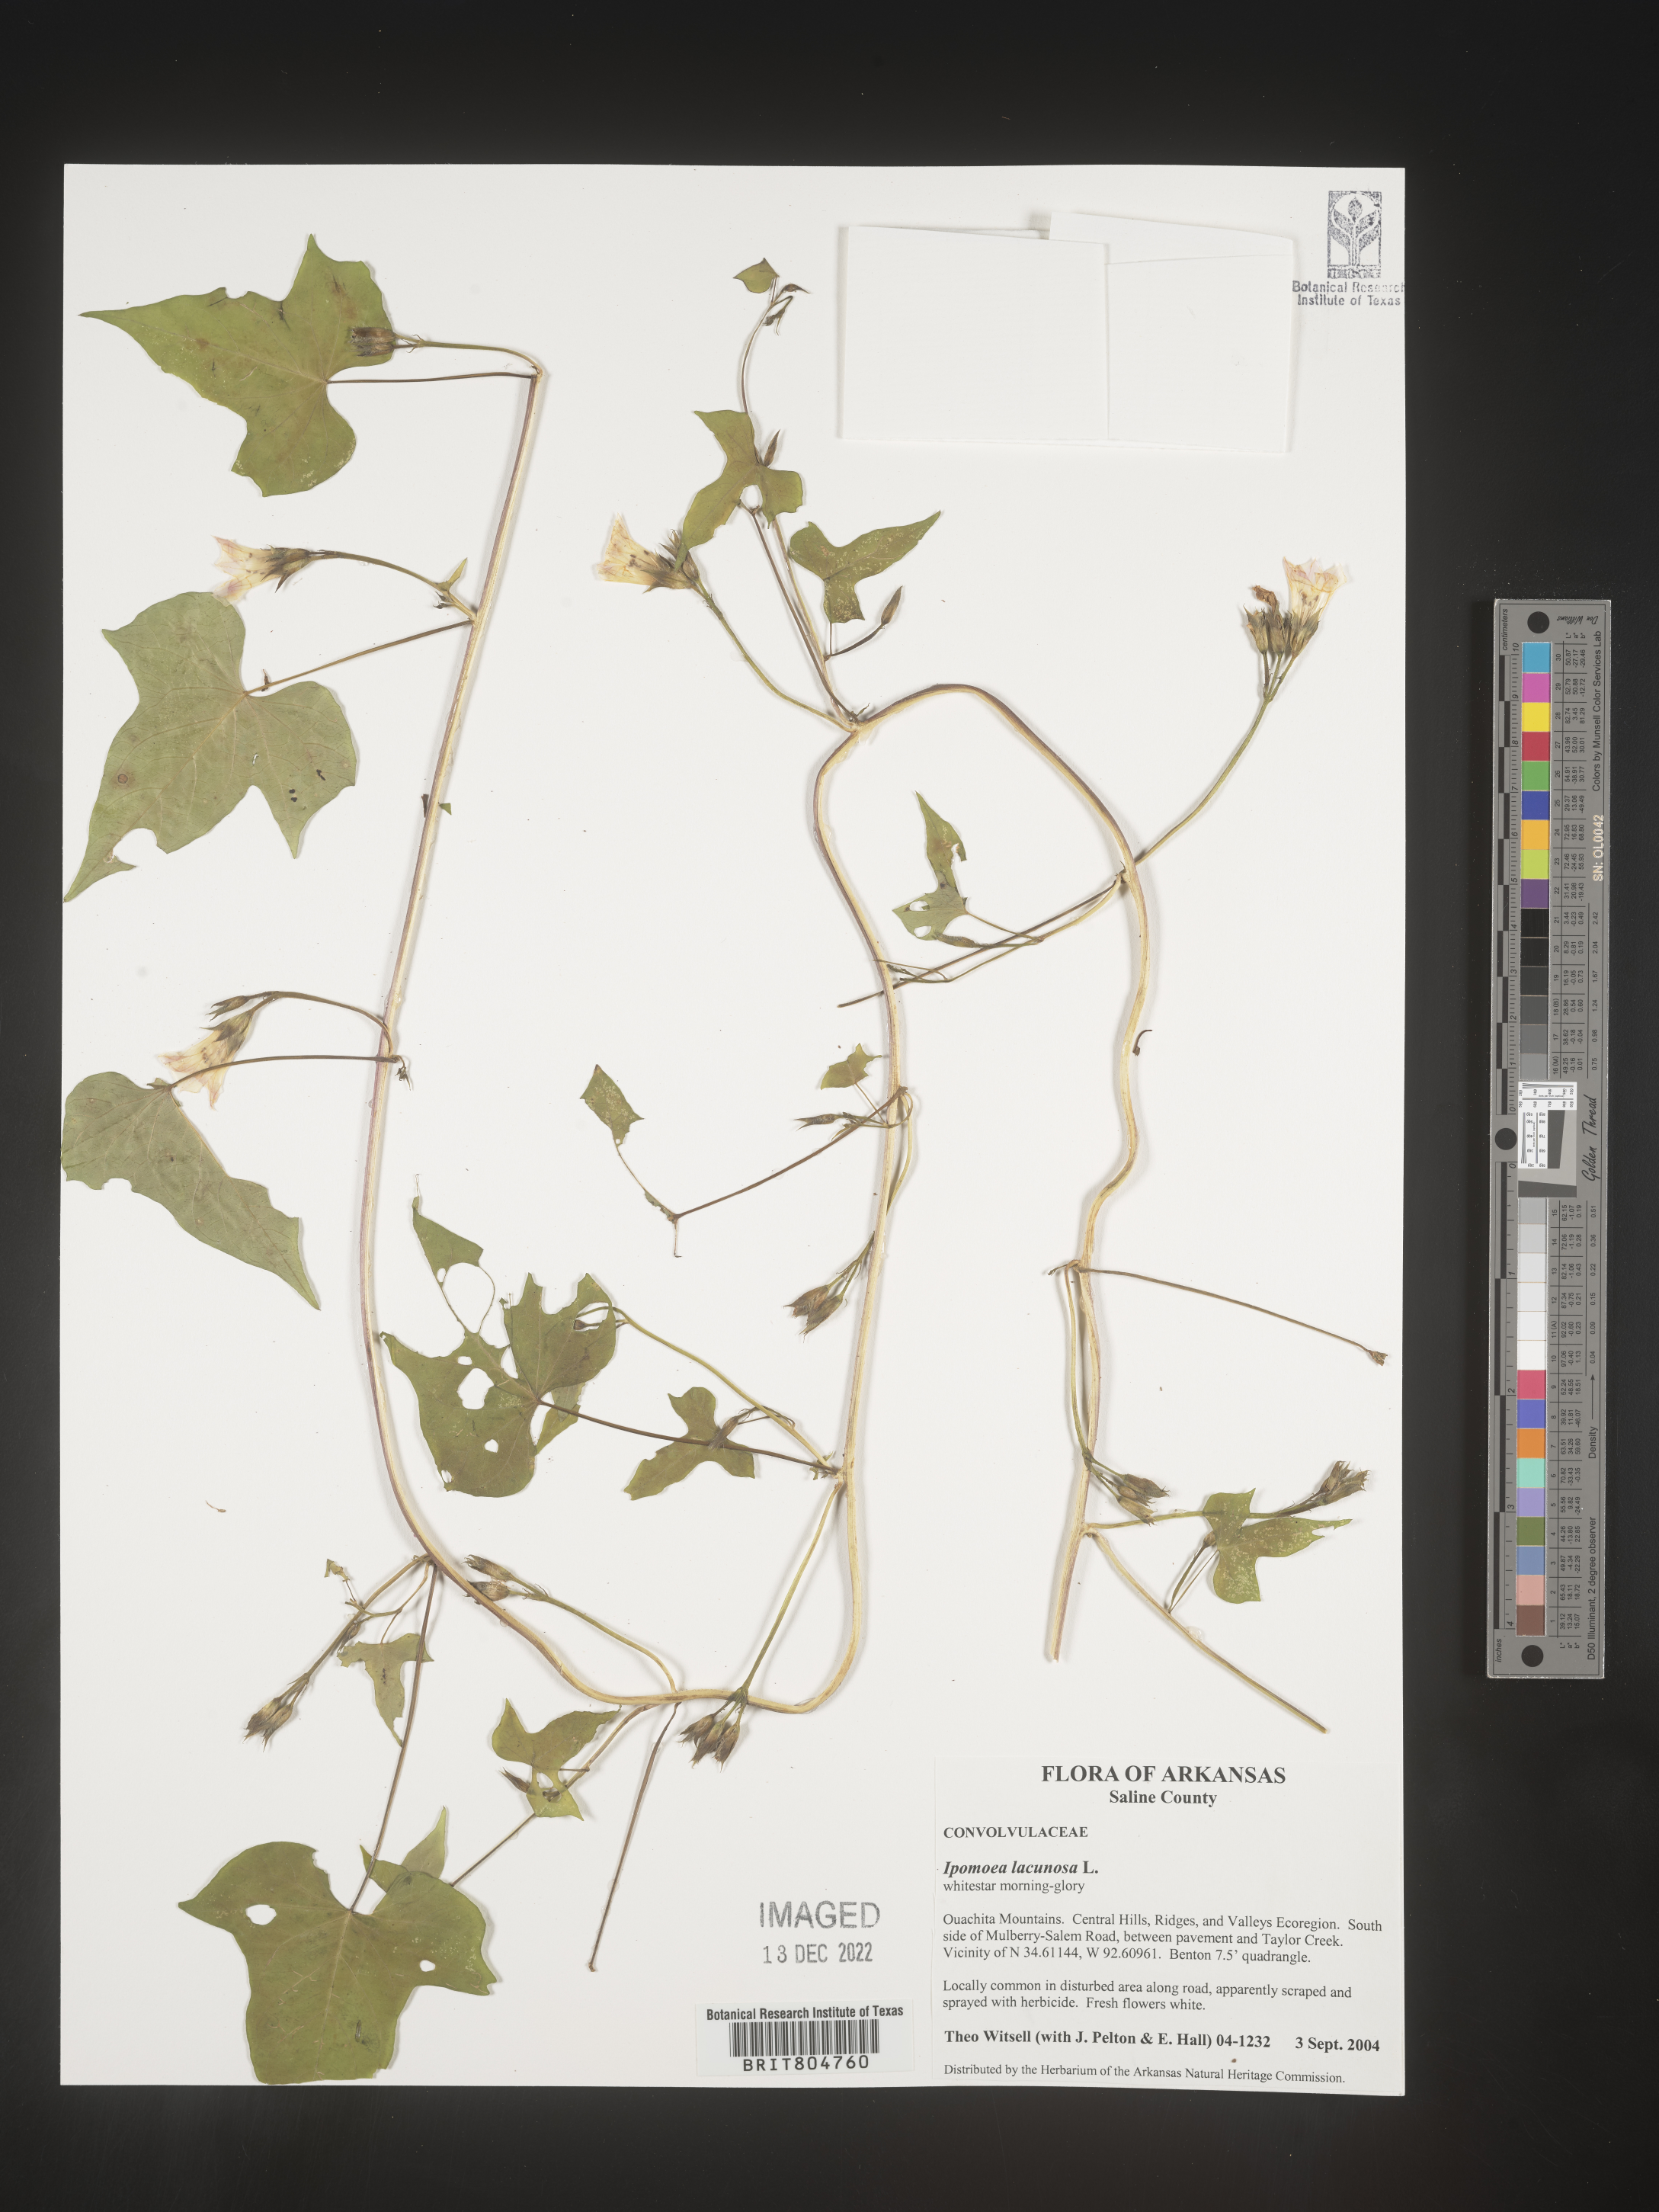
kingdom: Plantae
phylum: Tracheophyta
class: Magnoliopsida
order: Solanales
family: Convolvulaceae
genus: Ipomoea
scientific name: Ipomoea lacunosa
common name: White morning-glory
